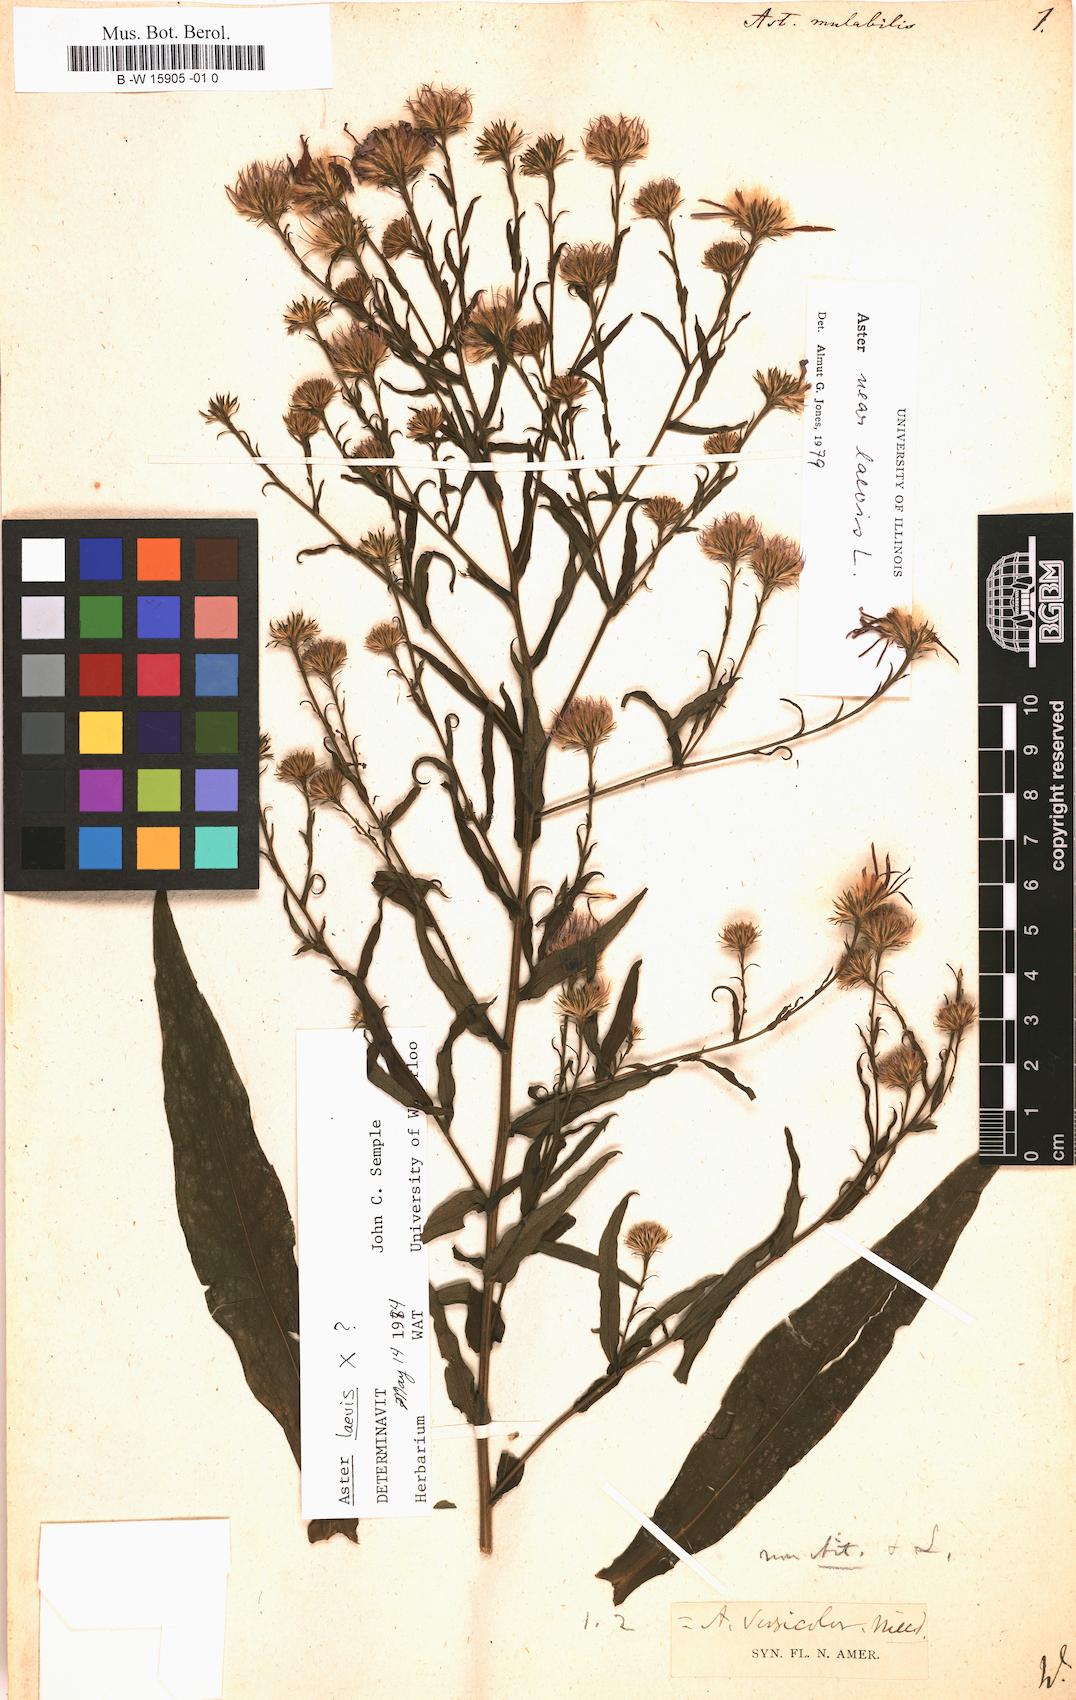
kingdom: Plantae
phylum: Tracheophyta
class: Magnoliopsida
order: Asterales
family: Asteraceae
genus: Aster
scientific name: Aster mutabilis
